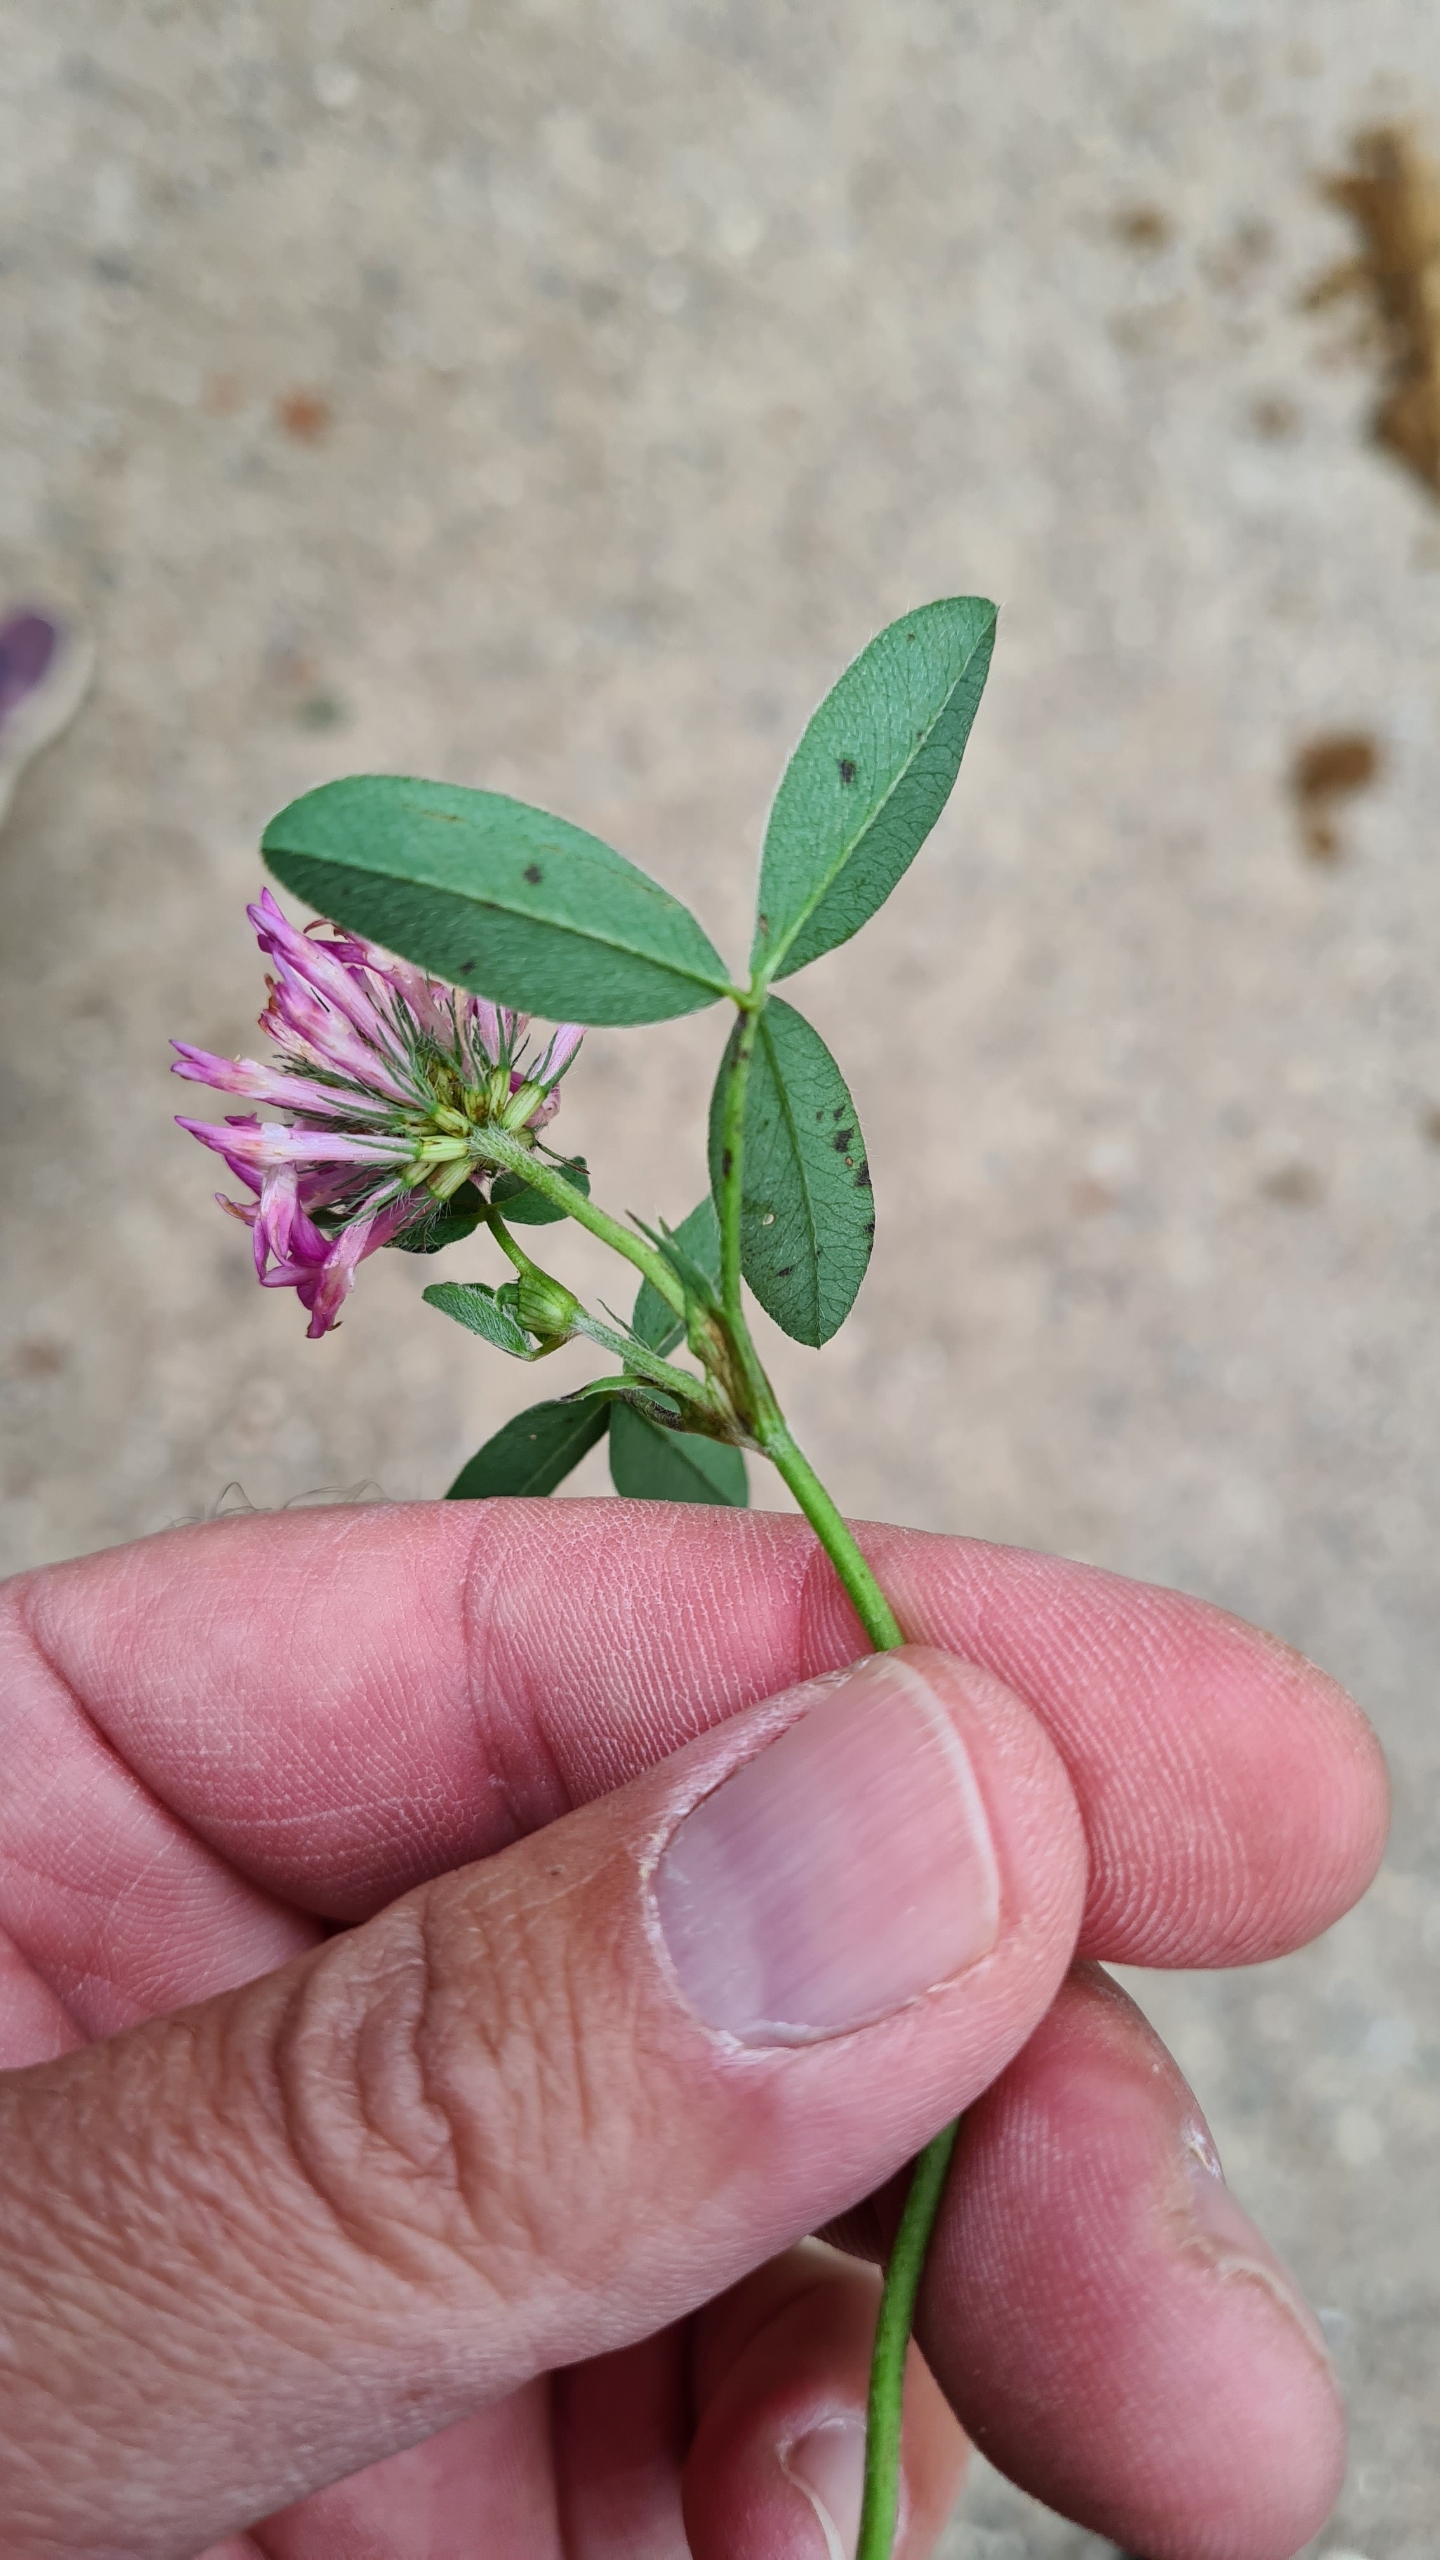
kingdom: Plantae
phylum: Tracheophyta
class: Magnoliopsida
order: Fabales
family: Fabaceae
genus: Trifolium
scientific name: Trifolium medium
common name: Bugtet kløver
